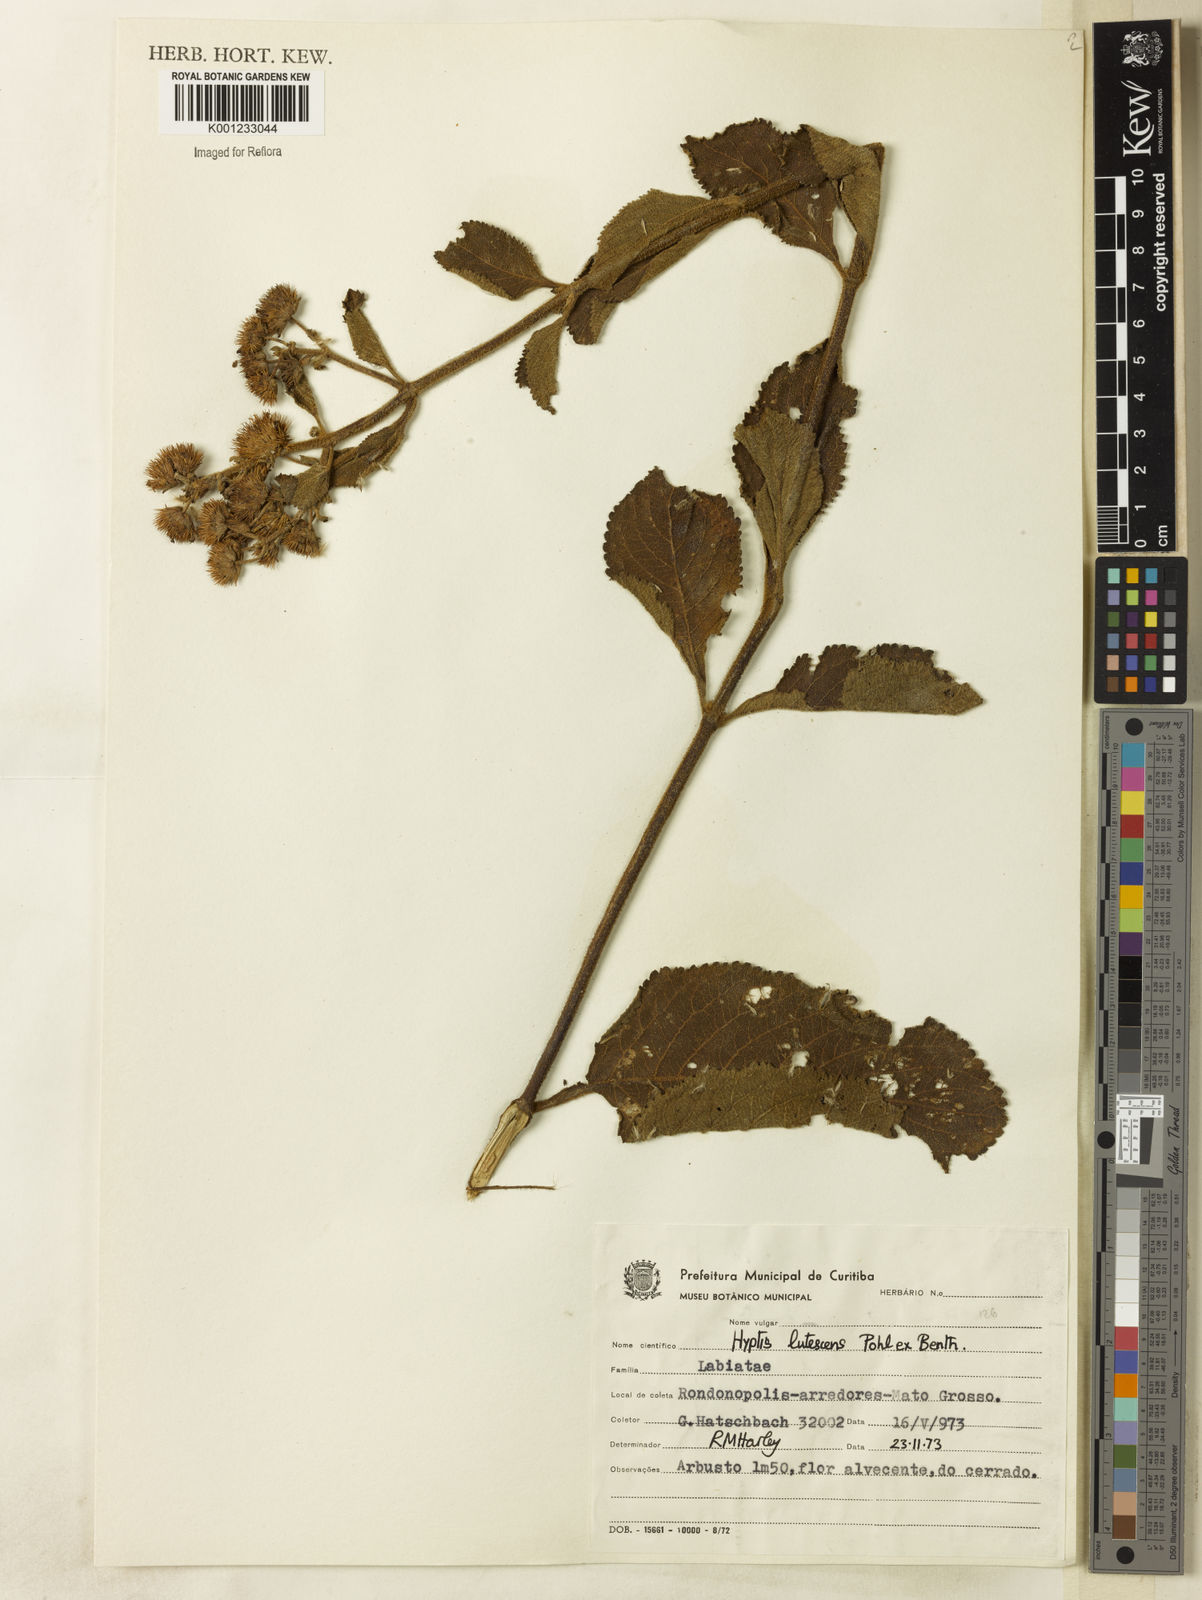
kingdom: Plantae
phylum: Tracheophyta
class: Magnoliopsida
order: Lamiales
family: Lamiaceae
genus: Hyptis
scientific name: Hyptis lutescens
